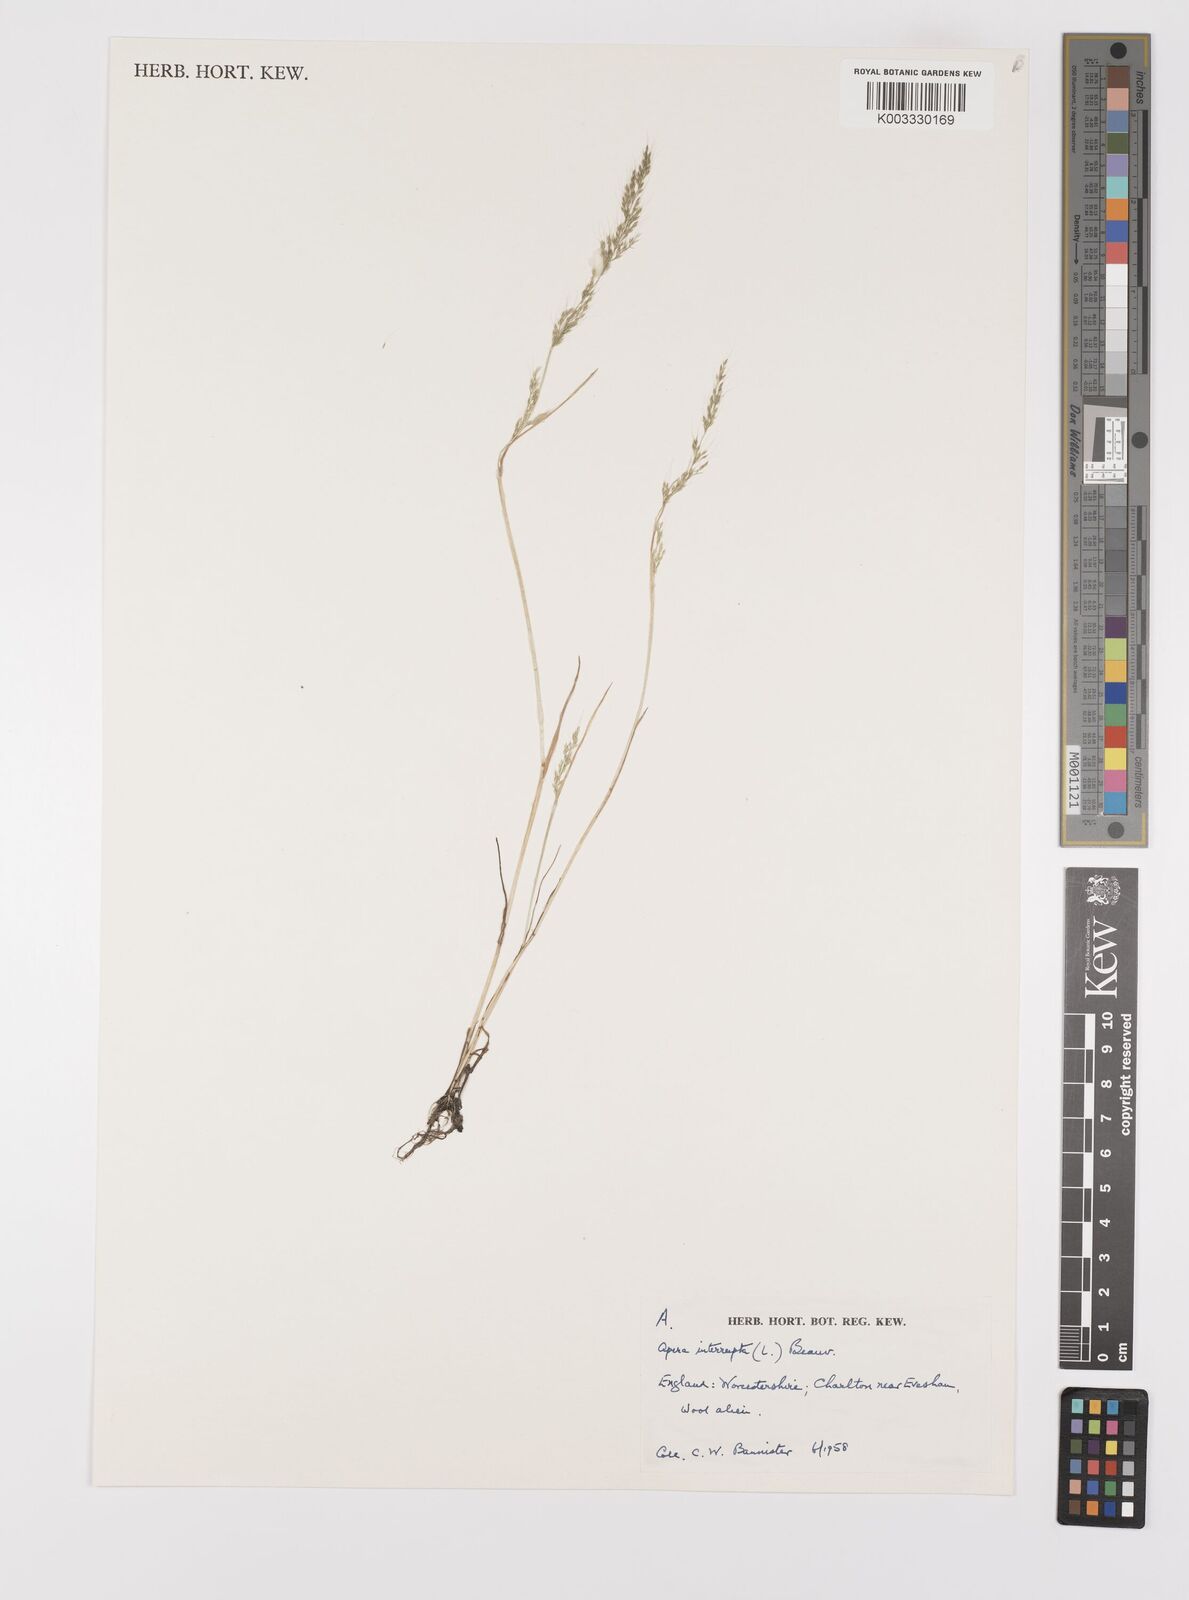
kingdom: Plantae
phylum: Tracheophyta
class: Liliopsida
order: Poales
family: Poaceae
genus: Apera
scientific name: Apera interrupta
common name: Dense silky-bent
